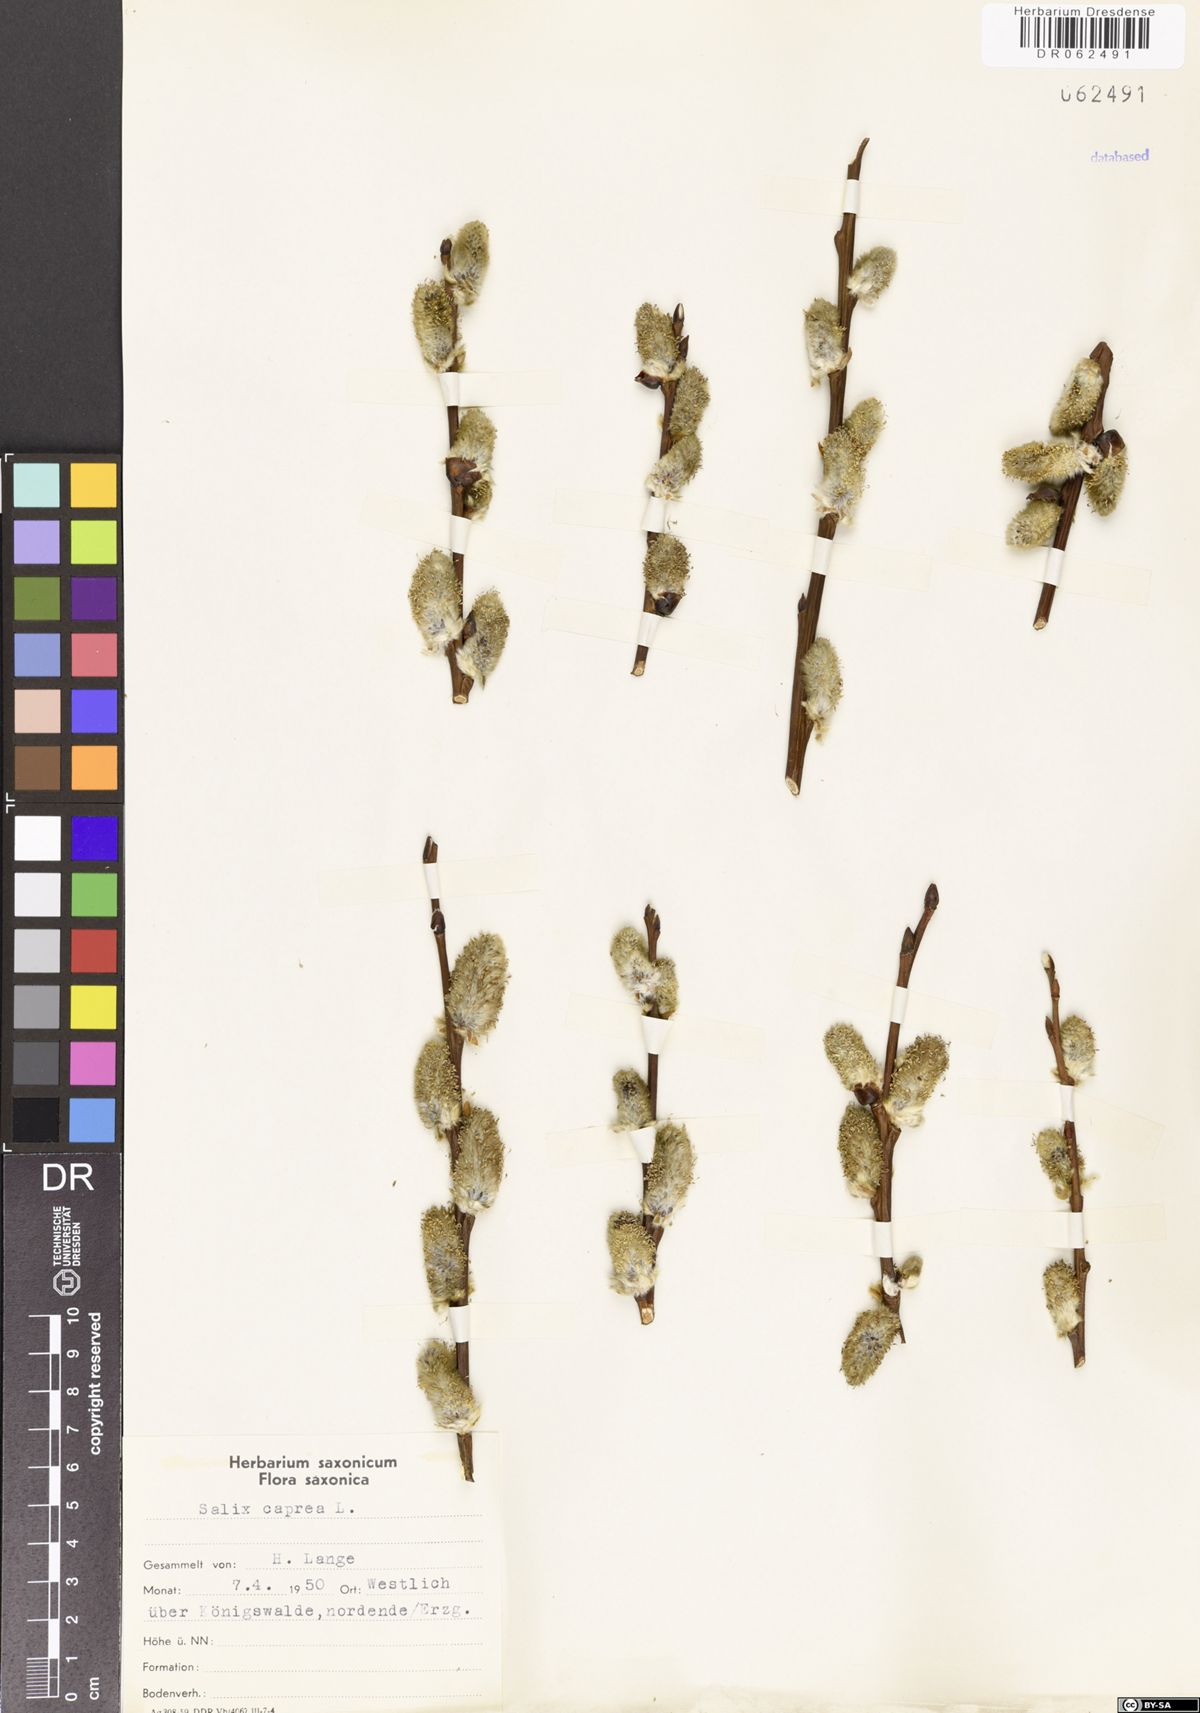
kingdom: Plantae
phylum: Tracheophyta
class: Magnoliopsida
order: Malpighiales
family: Salicaceae
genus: Salix
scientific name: Salix caprea
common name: Goat willow
